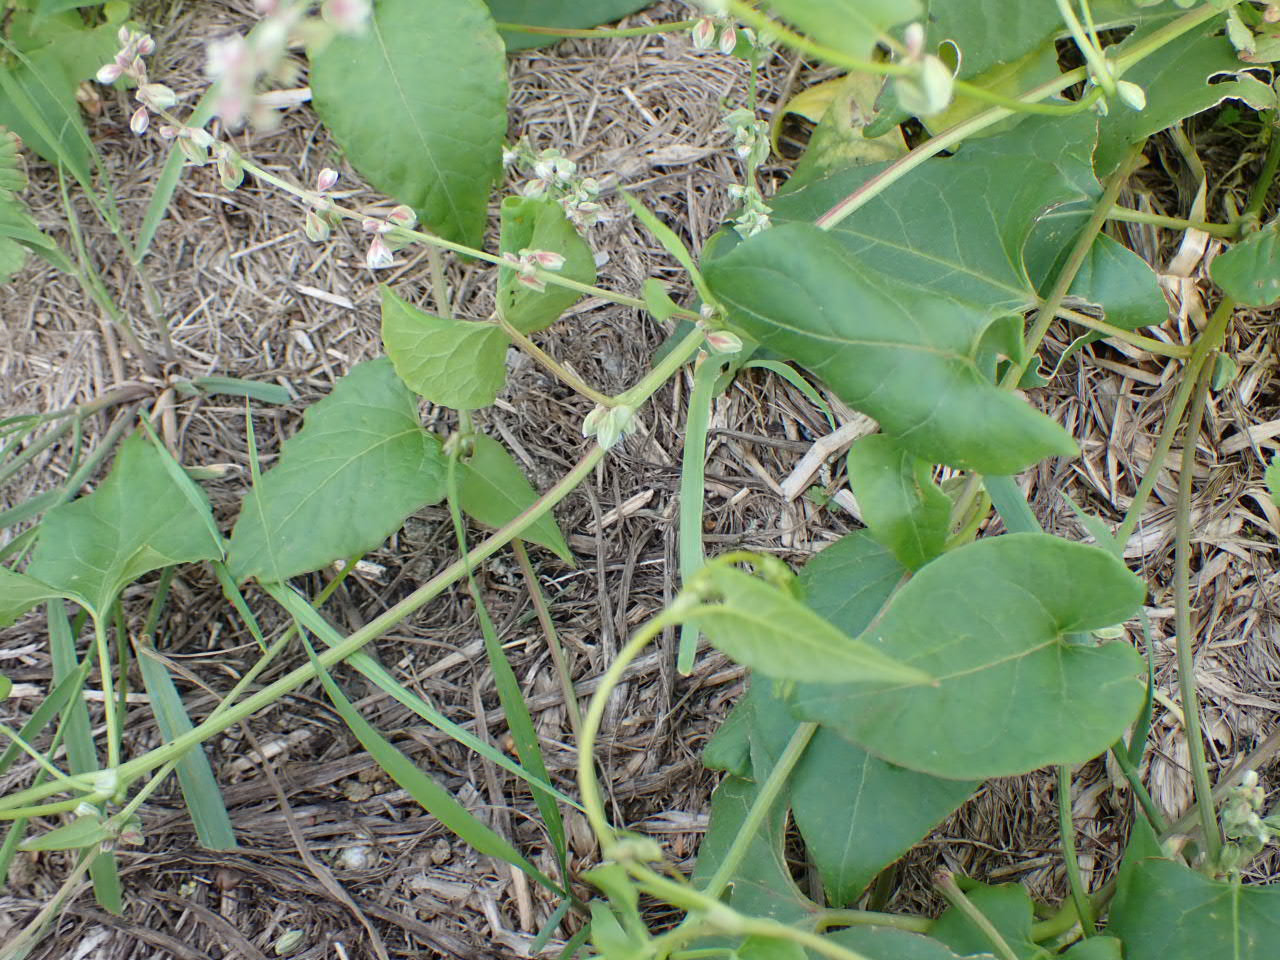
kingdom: Plantae
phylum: Tracheophyta
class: Magnoliopsida
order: Caryophyllales
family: Polygonaceae
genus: Fallopia
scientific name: Fallopia convolvulus
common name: Snerle-pileurt
